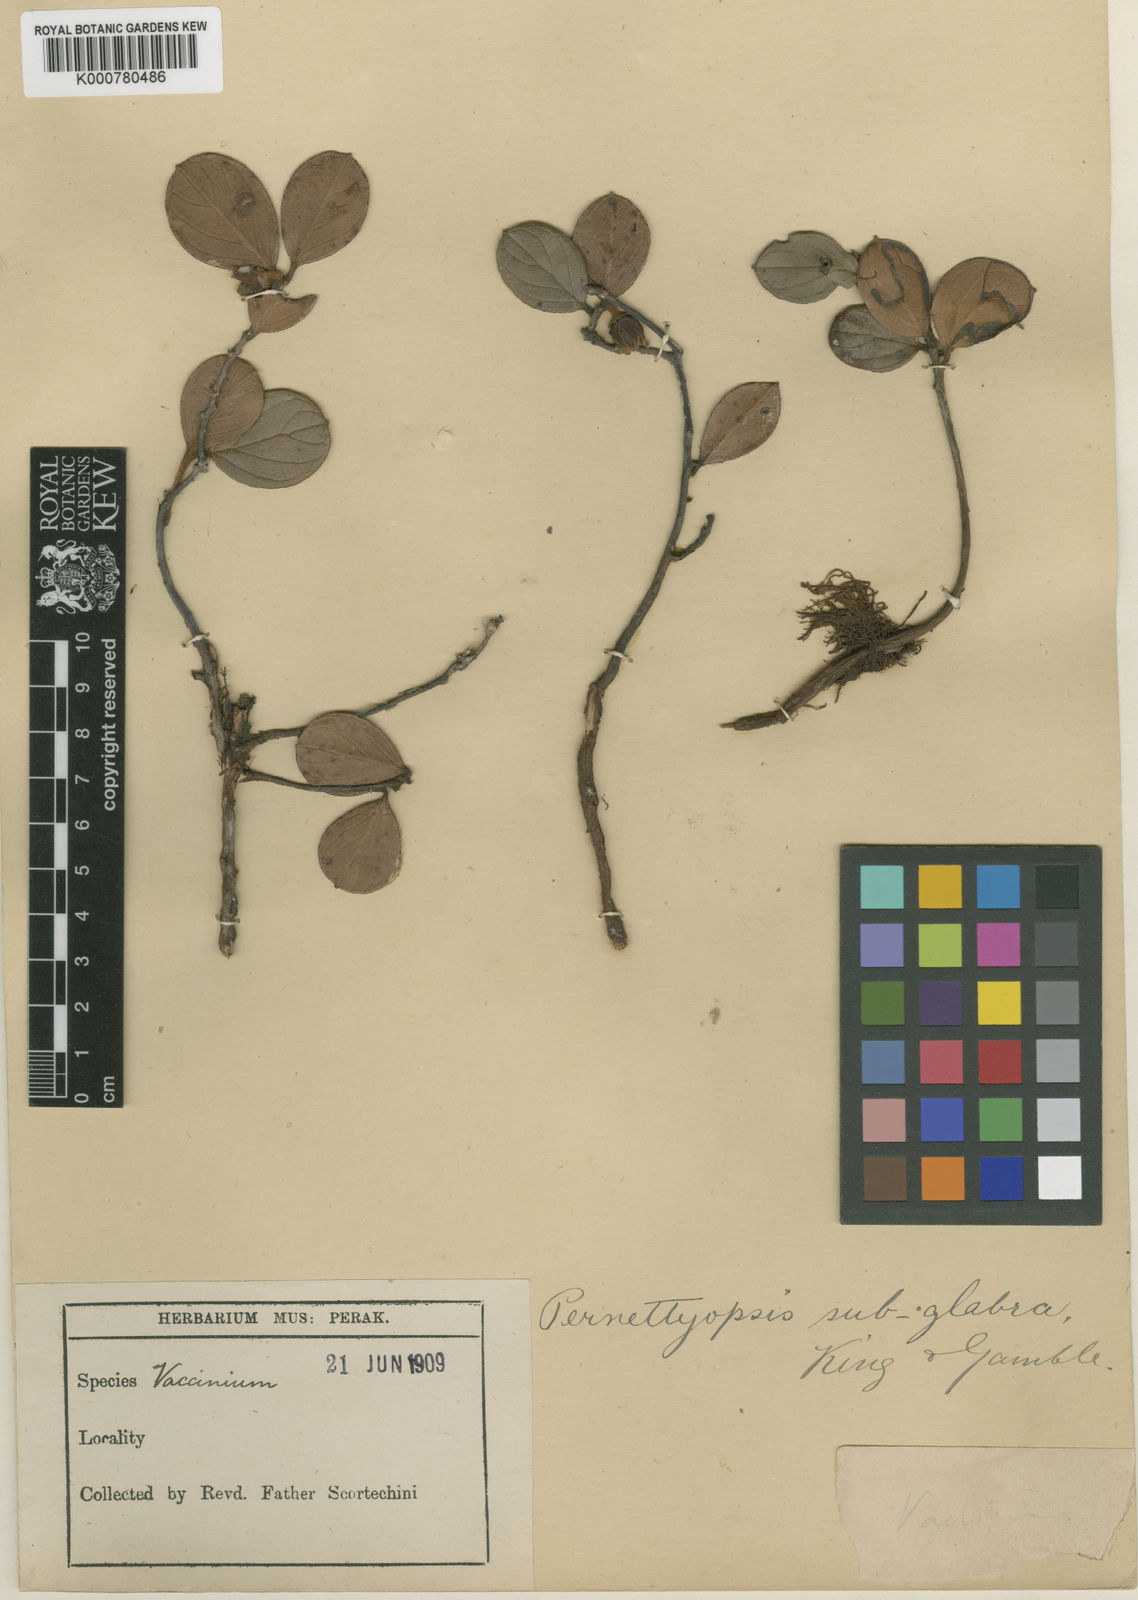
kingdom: Plantae
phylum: Tracheophyta
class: Magnoliopsida
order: Ericales
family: Ericaceae
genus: Gaultheria
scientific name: Gaultheria macrocalyx
